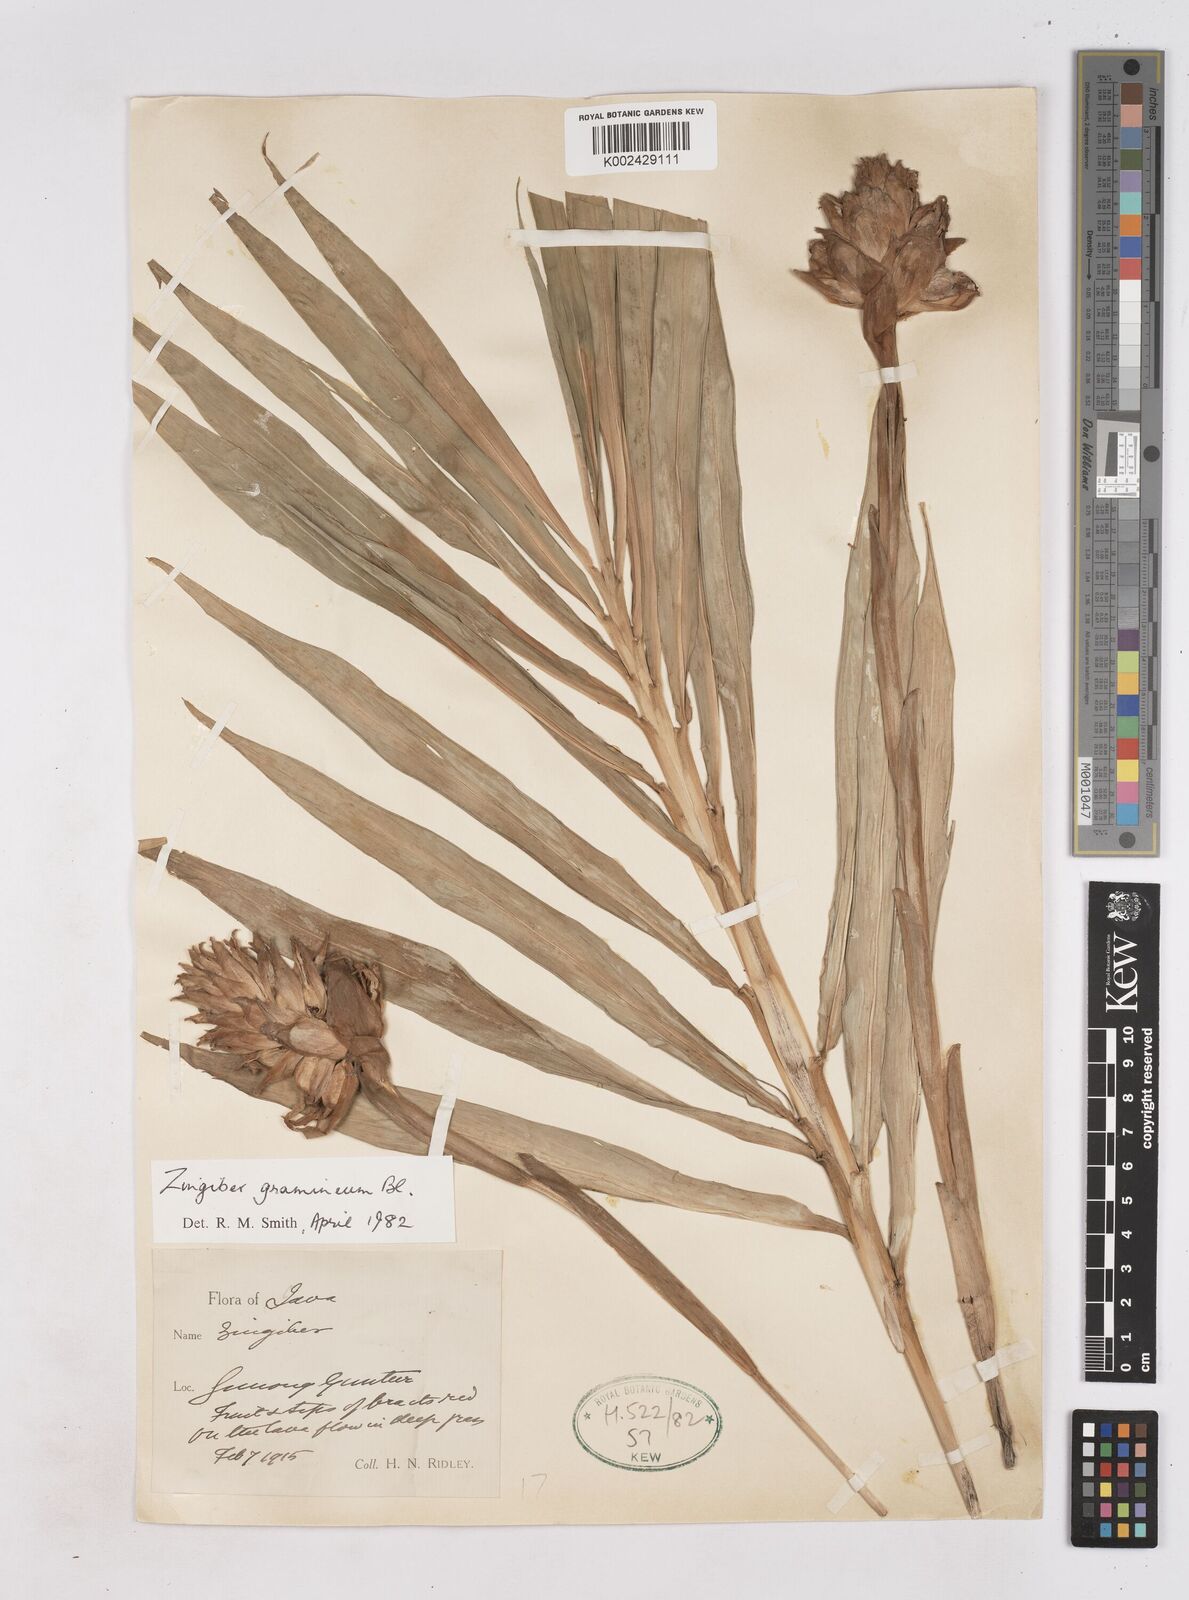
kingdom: Plantae
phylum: Tracheophyta
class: Liliopsida
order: Zingiberales
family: Zingiberaceae
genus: Zingiber
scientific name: Zingiber gramineum
